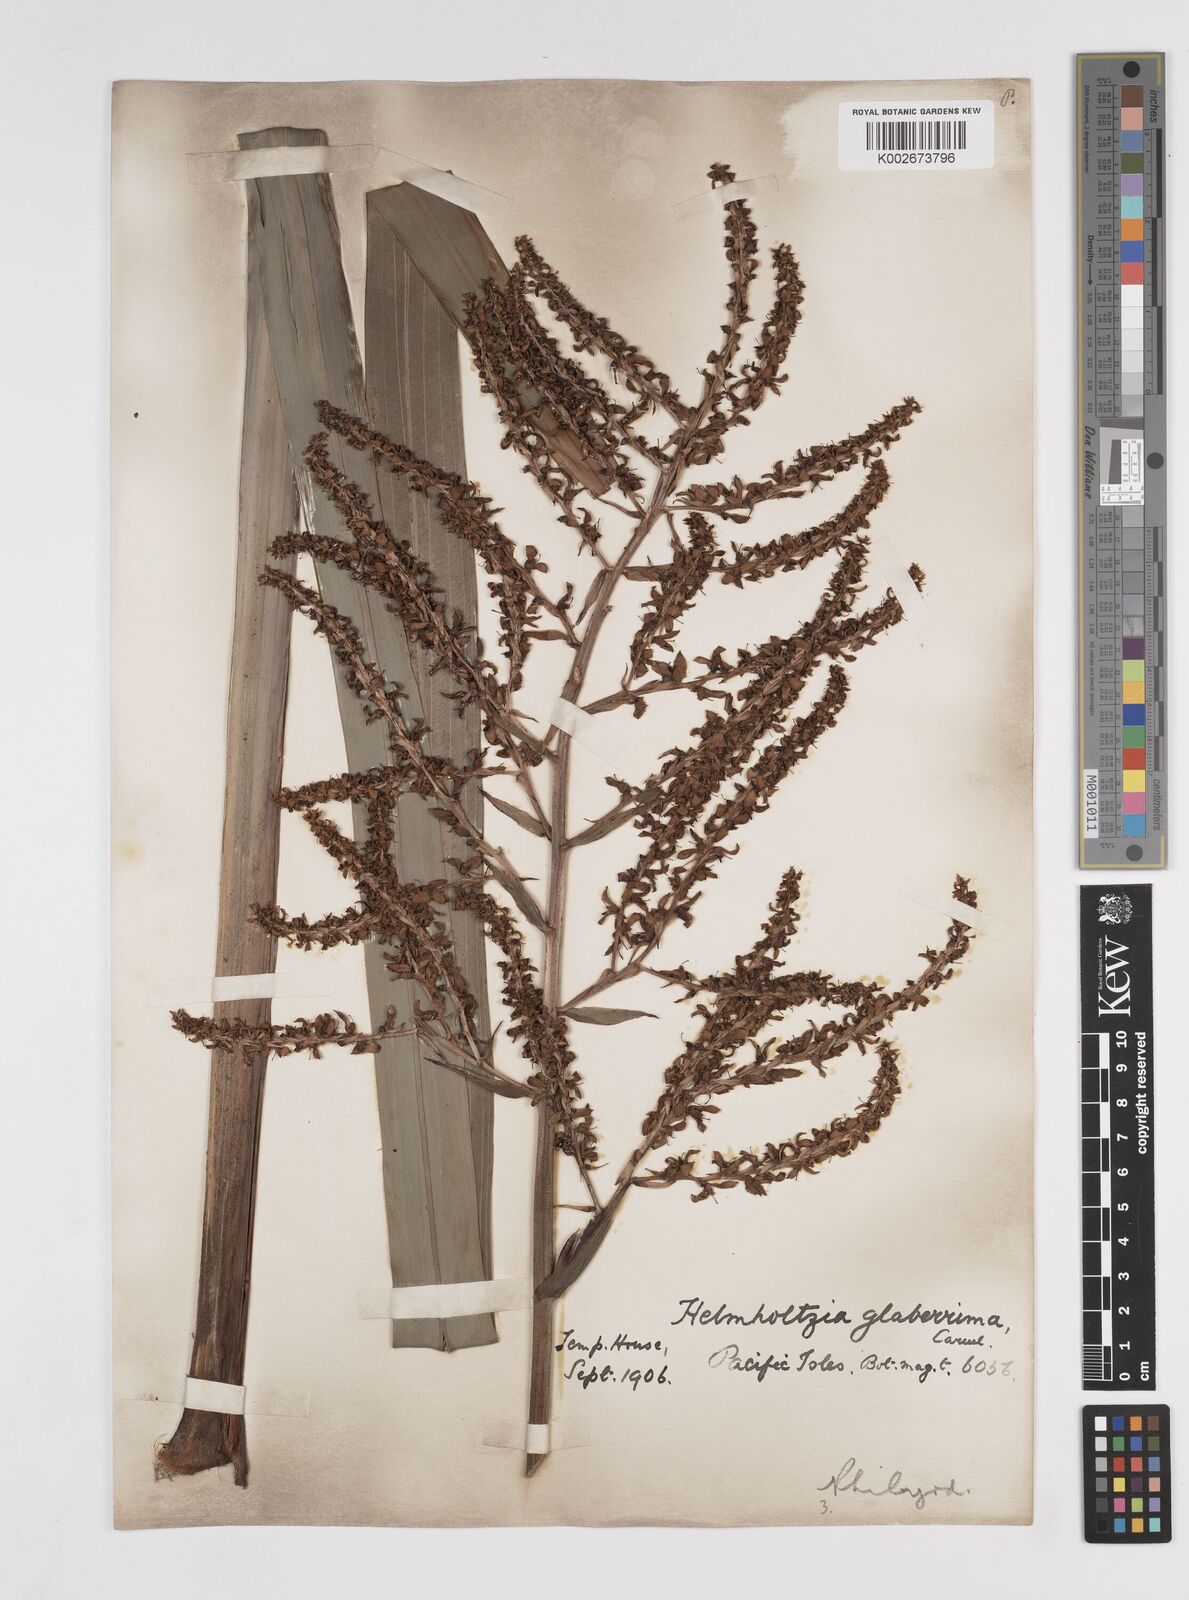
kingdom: Plantae
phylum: Tracheophyta
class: Liliopsida
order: Commelinales
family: Philydraceae
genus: Helmholtzia
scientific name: Helmholtzia glaberrima
